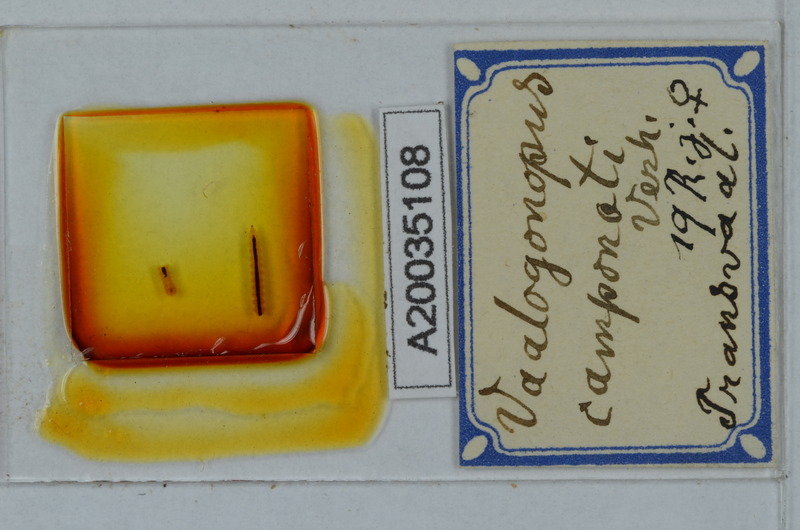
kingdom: Animalia
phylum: Arthropoda
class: Diplopoda
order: Polydesmida
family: Vaalogonopodidae
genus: Vaalogonopus
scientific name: Vaalogonopus camponoti
